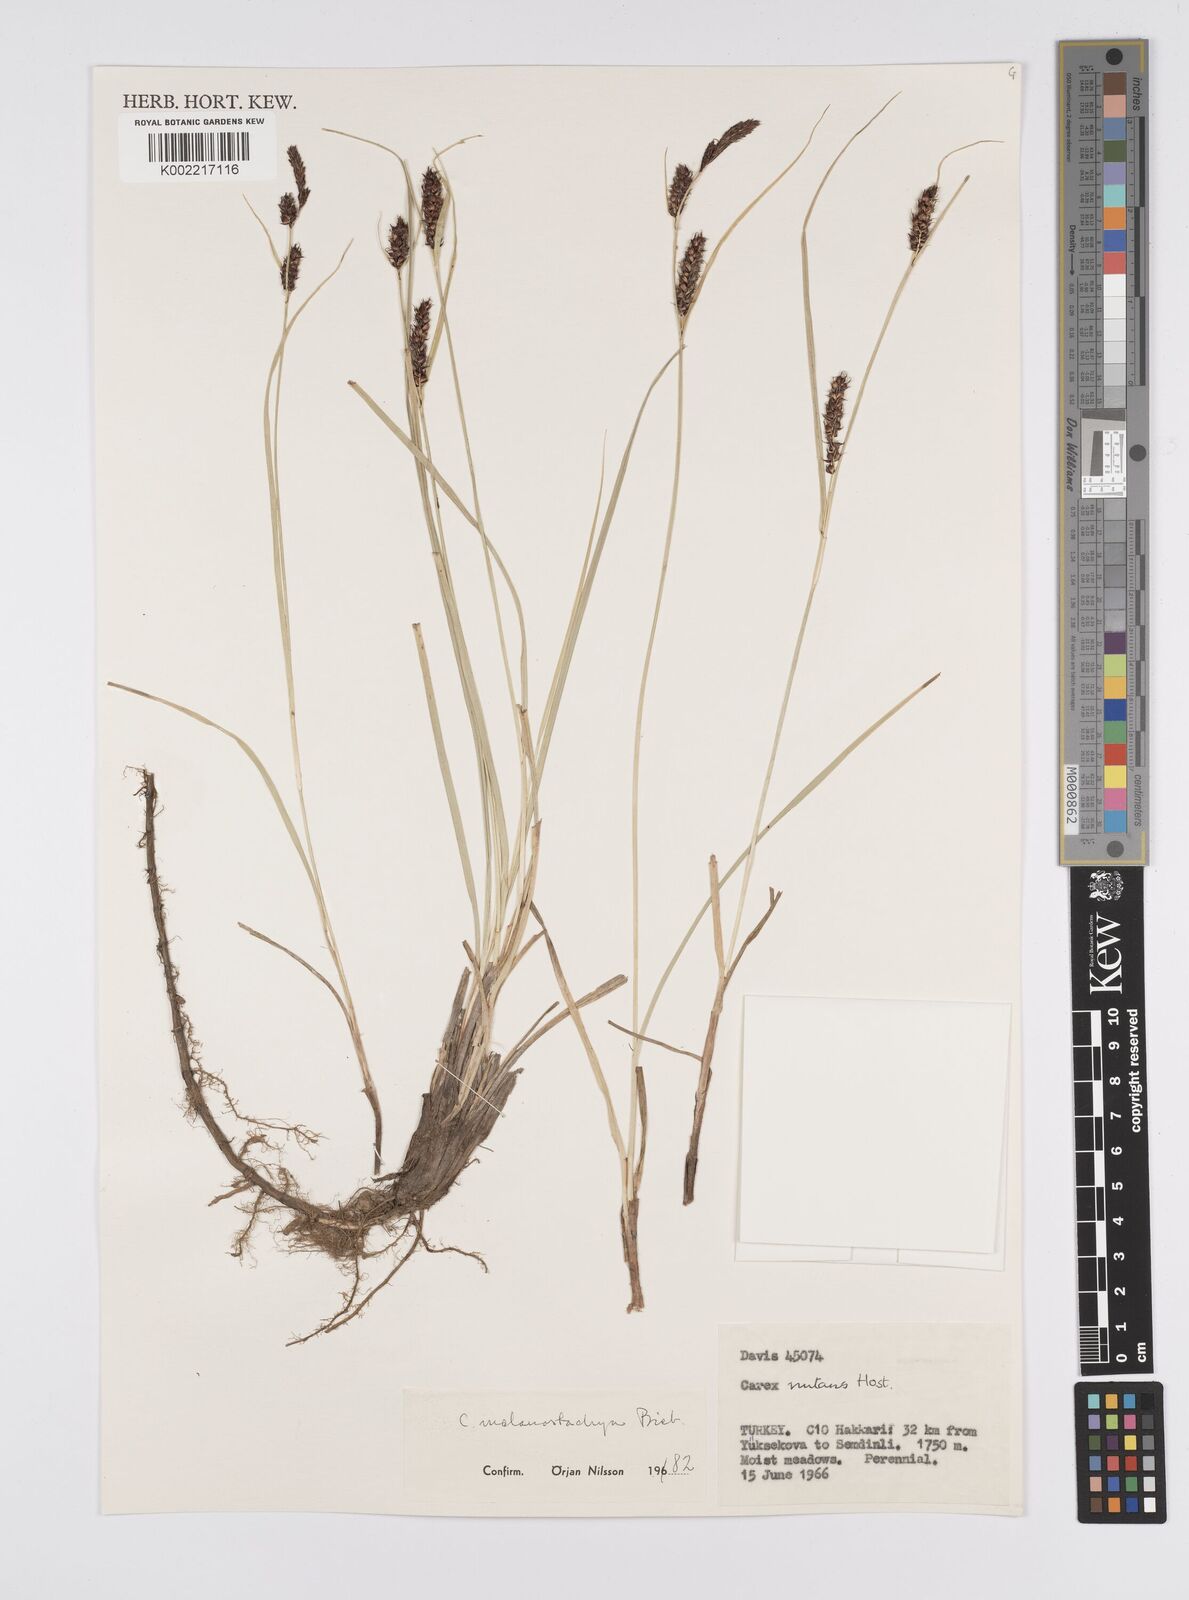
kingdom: Plantae
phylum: Tracheophyta
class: Liliopsida
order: Poales
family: Cyperaceae
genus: Carex
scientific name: Carex melanostachya
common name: Black-spiked sedge
